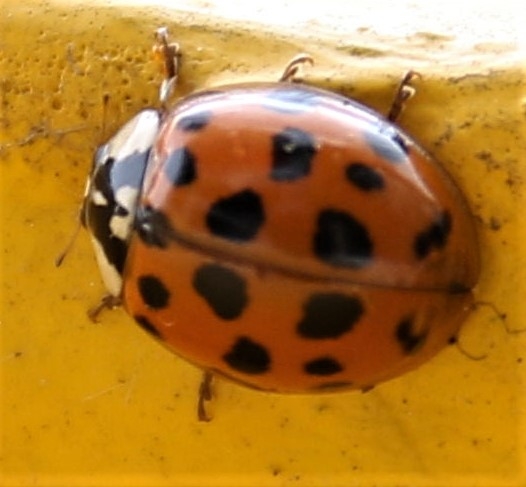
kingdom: Animalia
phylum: Arthropoda
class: Insecta
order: Coleoptera
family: Coccinellidae
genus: Harmonia
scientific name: Harmonia axyridis
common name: Harlekinmariehøne
